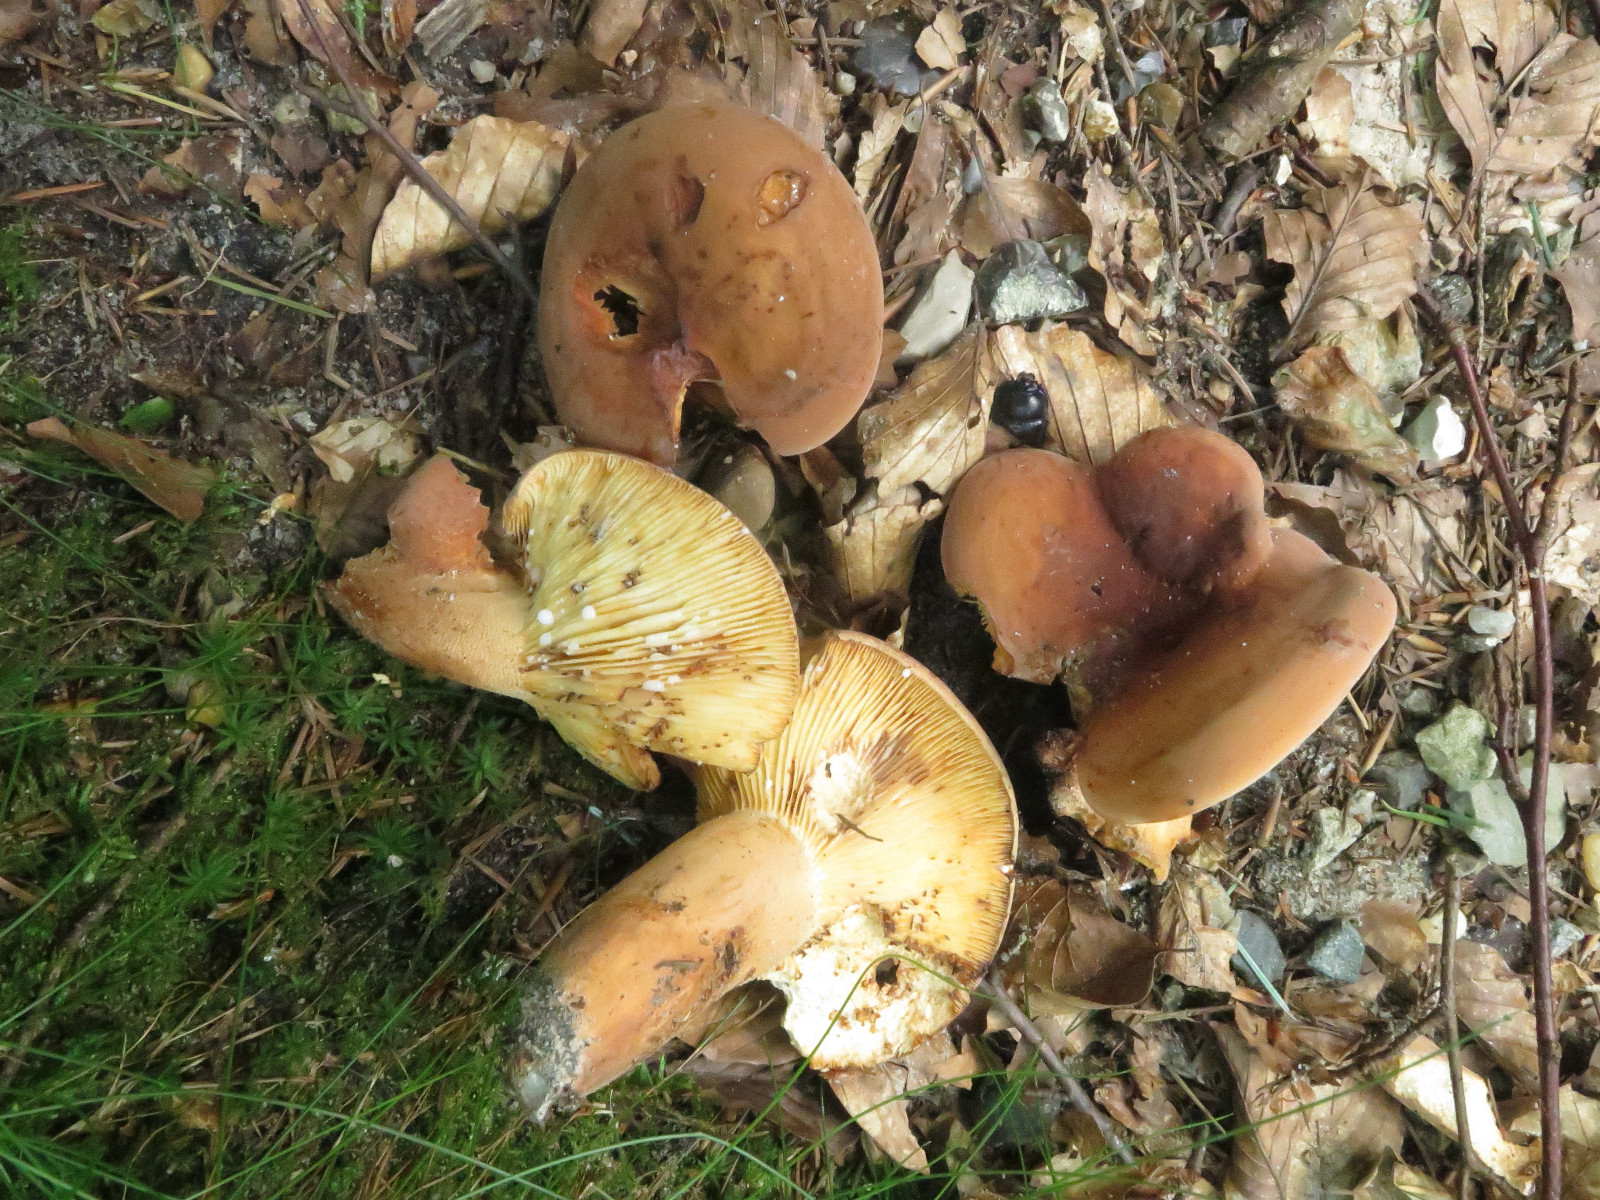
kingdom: Fungi
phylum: Basidiomycota
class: Agaricomycetes
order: Russulales
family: Russulaceae
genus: Lactifluus
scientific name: Lactifluus volemus
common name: spiselig mælkehat
